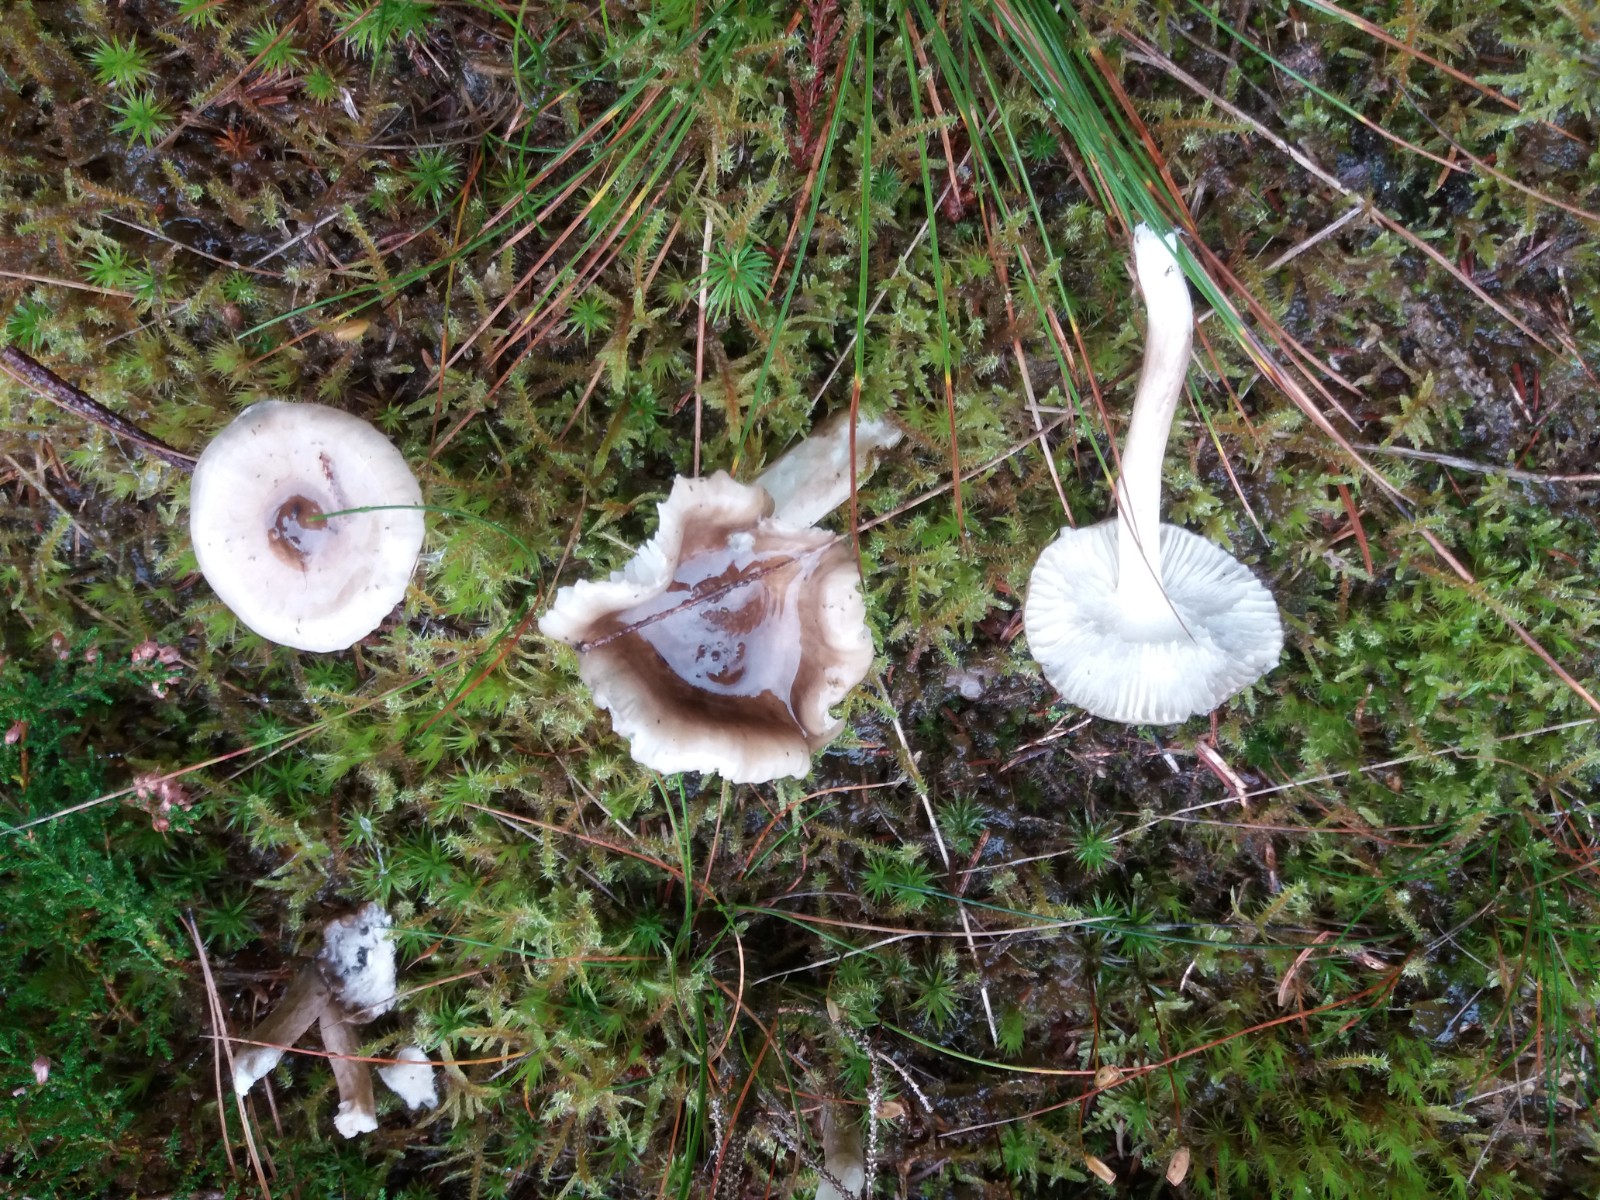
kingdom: Fungi
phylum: Basidiomycota
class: Agaricomycetes
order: Agaricales
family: Hygrophoraceae
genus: Hygrophorus
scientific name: Hygrophorus olivaceoalbus
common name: hvidbrun sneglehat
